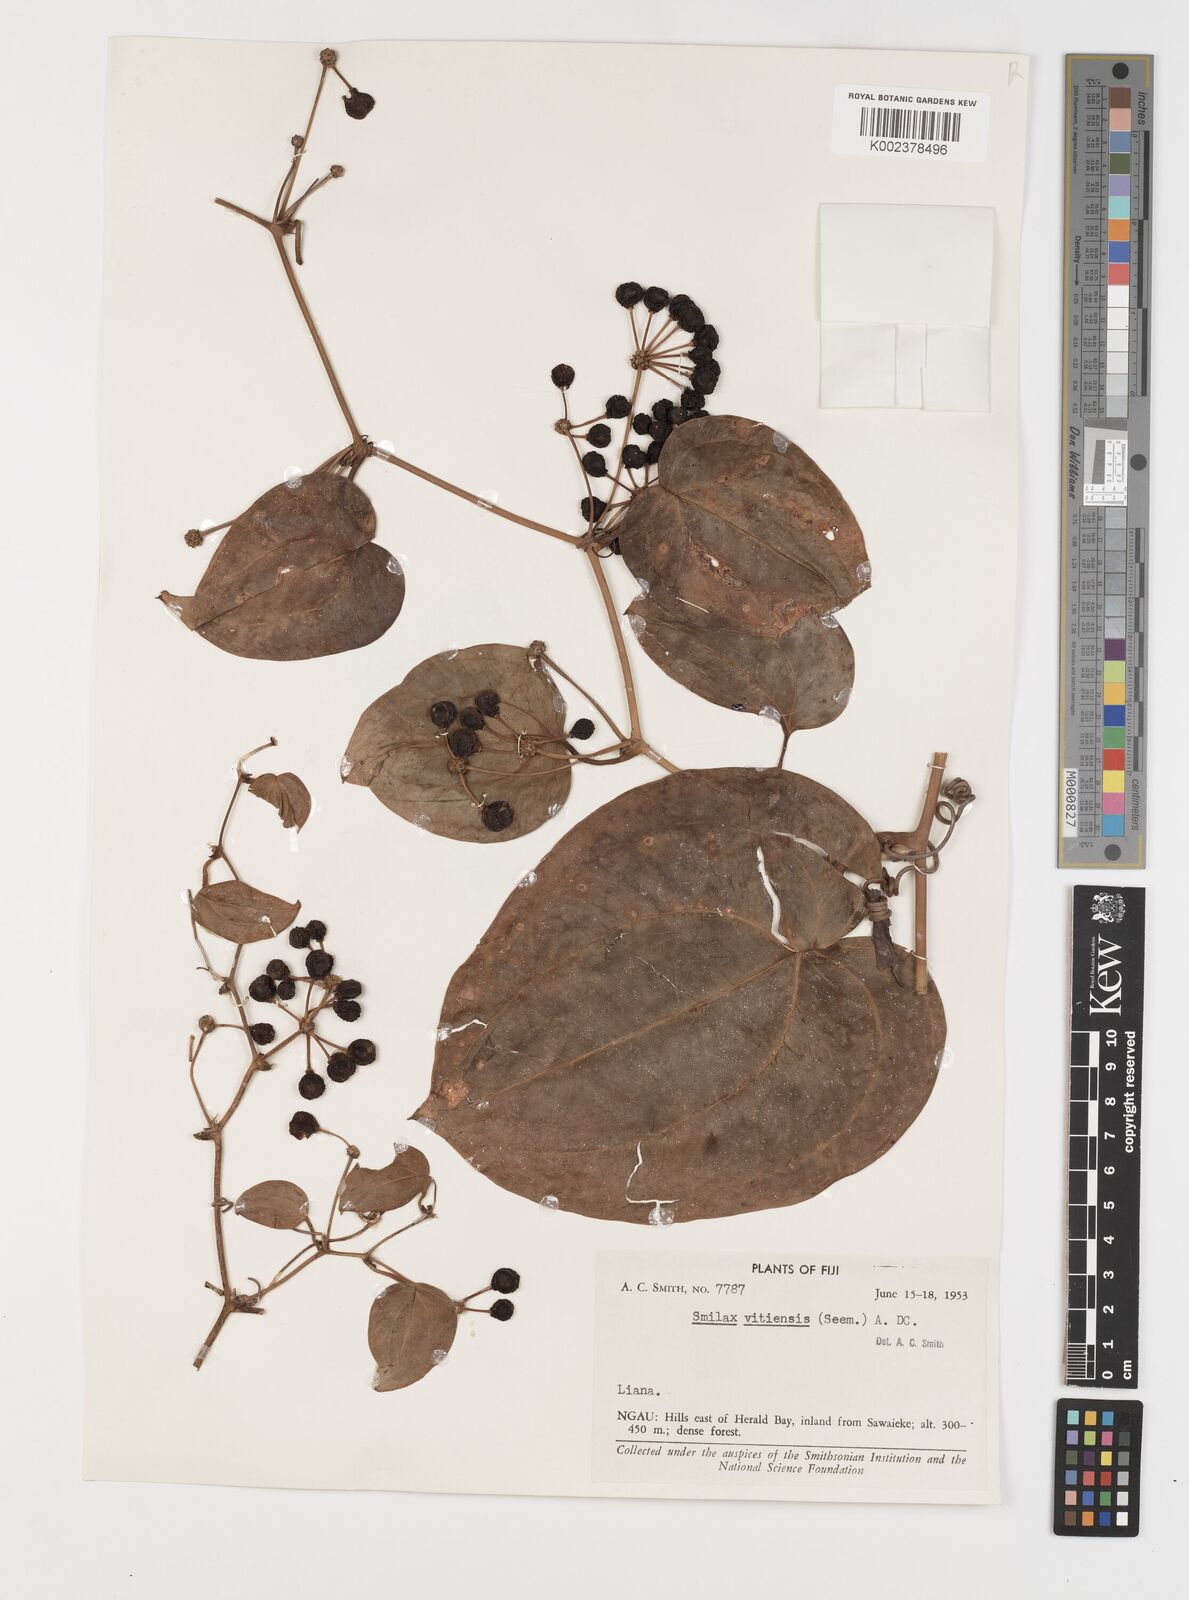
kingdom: Plantae
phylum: Tracheophyta
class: Liliopsida
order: Liliales
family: Smilacaceae
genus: Smilax
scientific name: Smilax vitiensis
